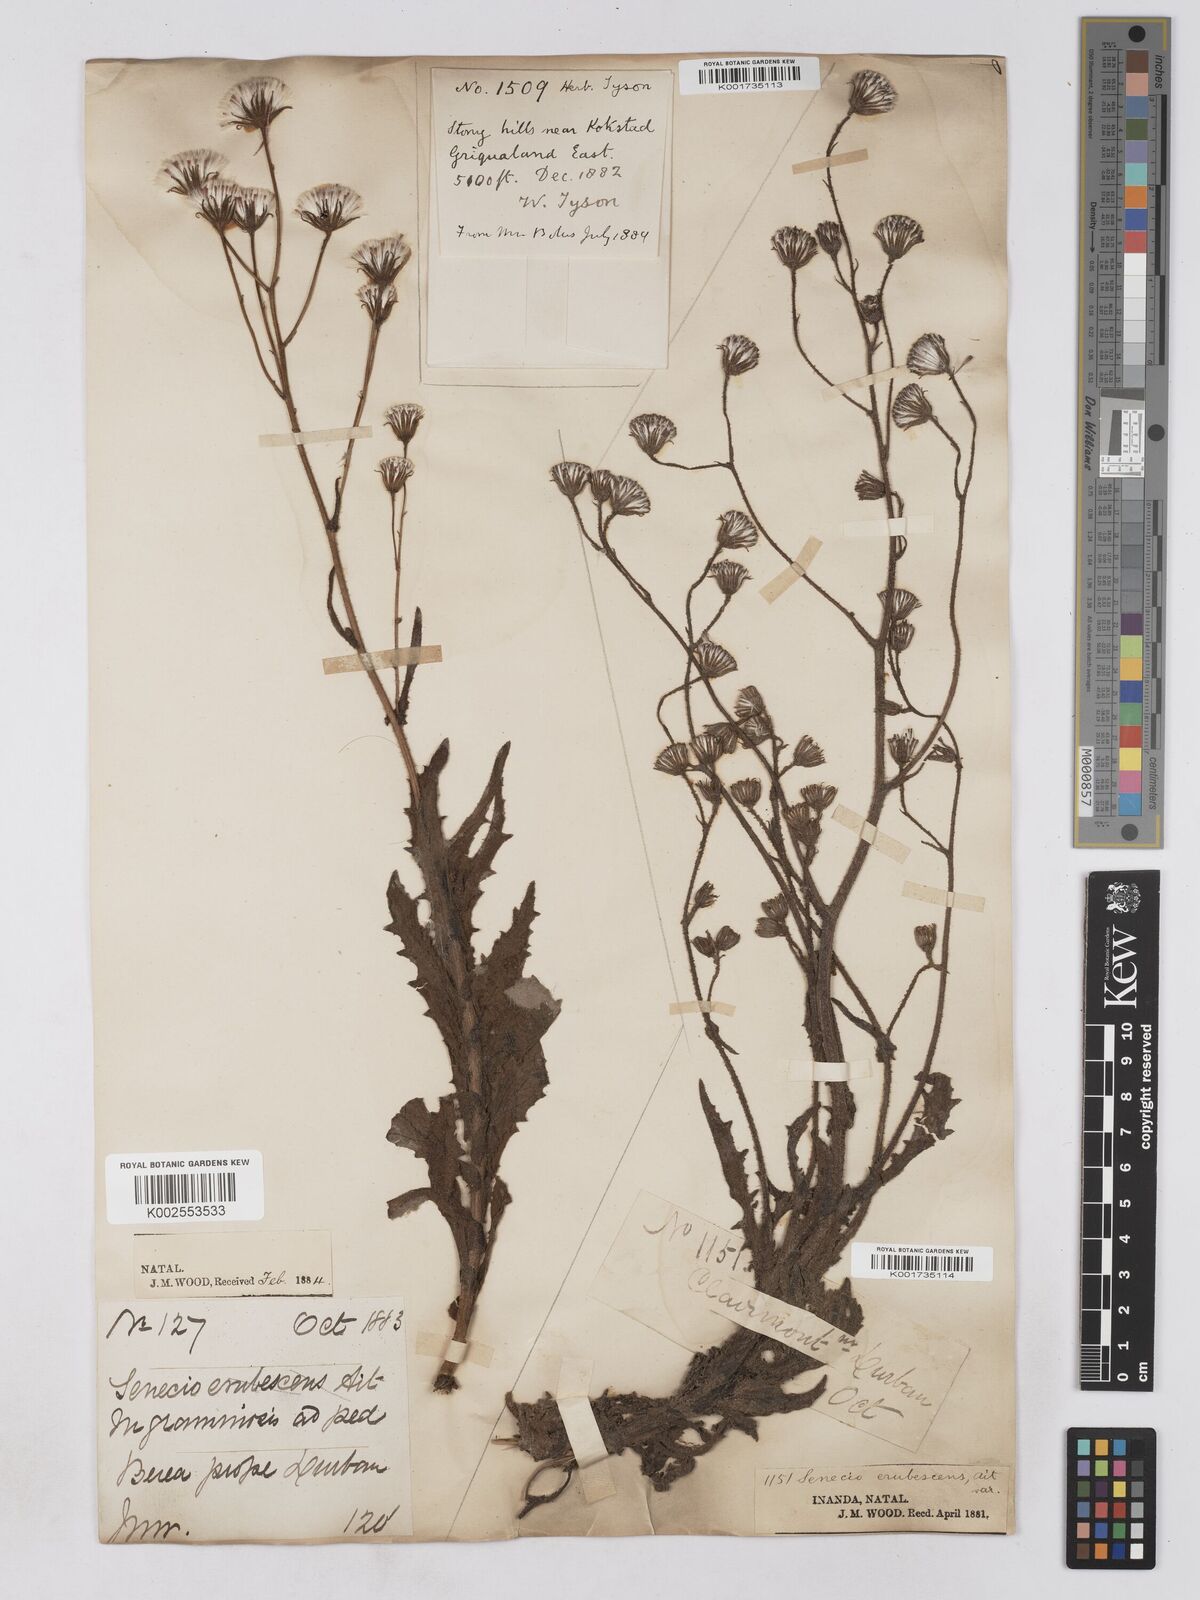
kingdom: Plantae
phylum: Tracheophyta
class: Magnoliopsida
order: Asterales
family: Asteraceae
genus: Senecio
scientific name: Senecio sandersonii
